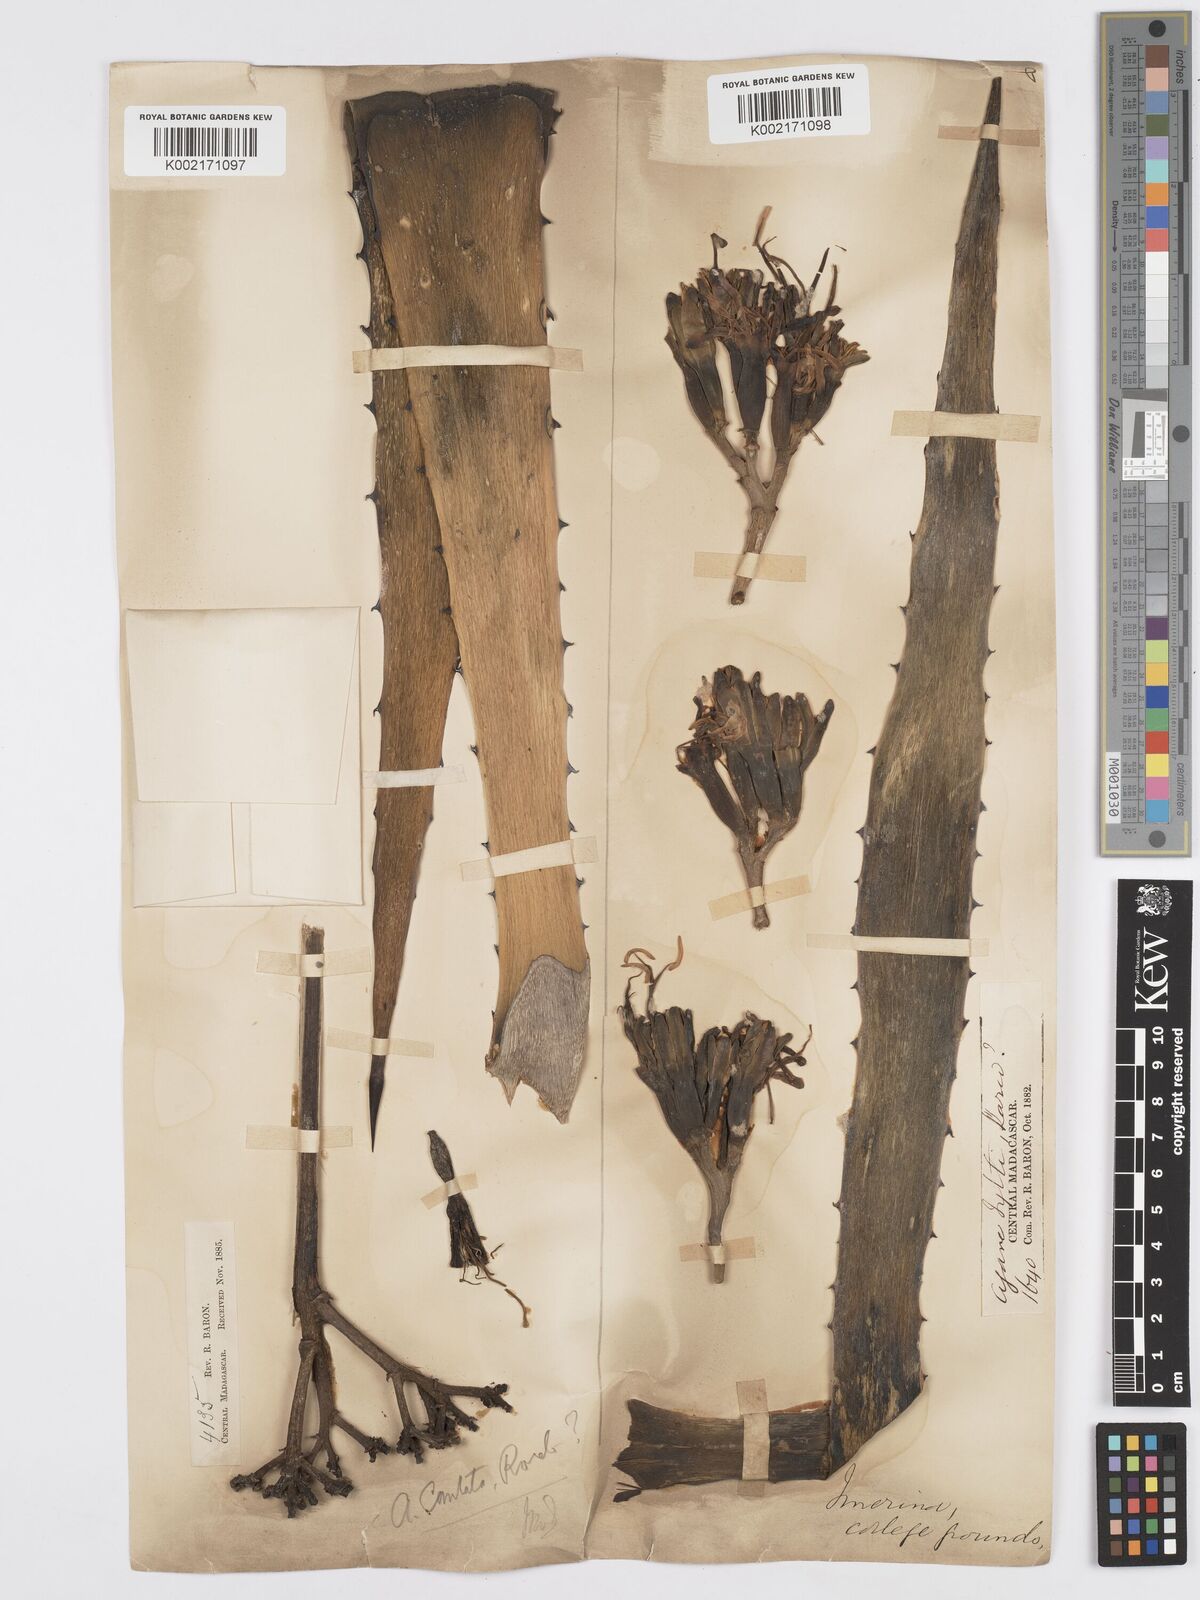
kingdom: Plantae
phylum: Tracheophyta
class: Liliopsida
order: Asparagales
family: Asparagaceae
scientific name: Asparagaceae
